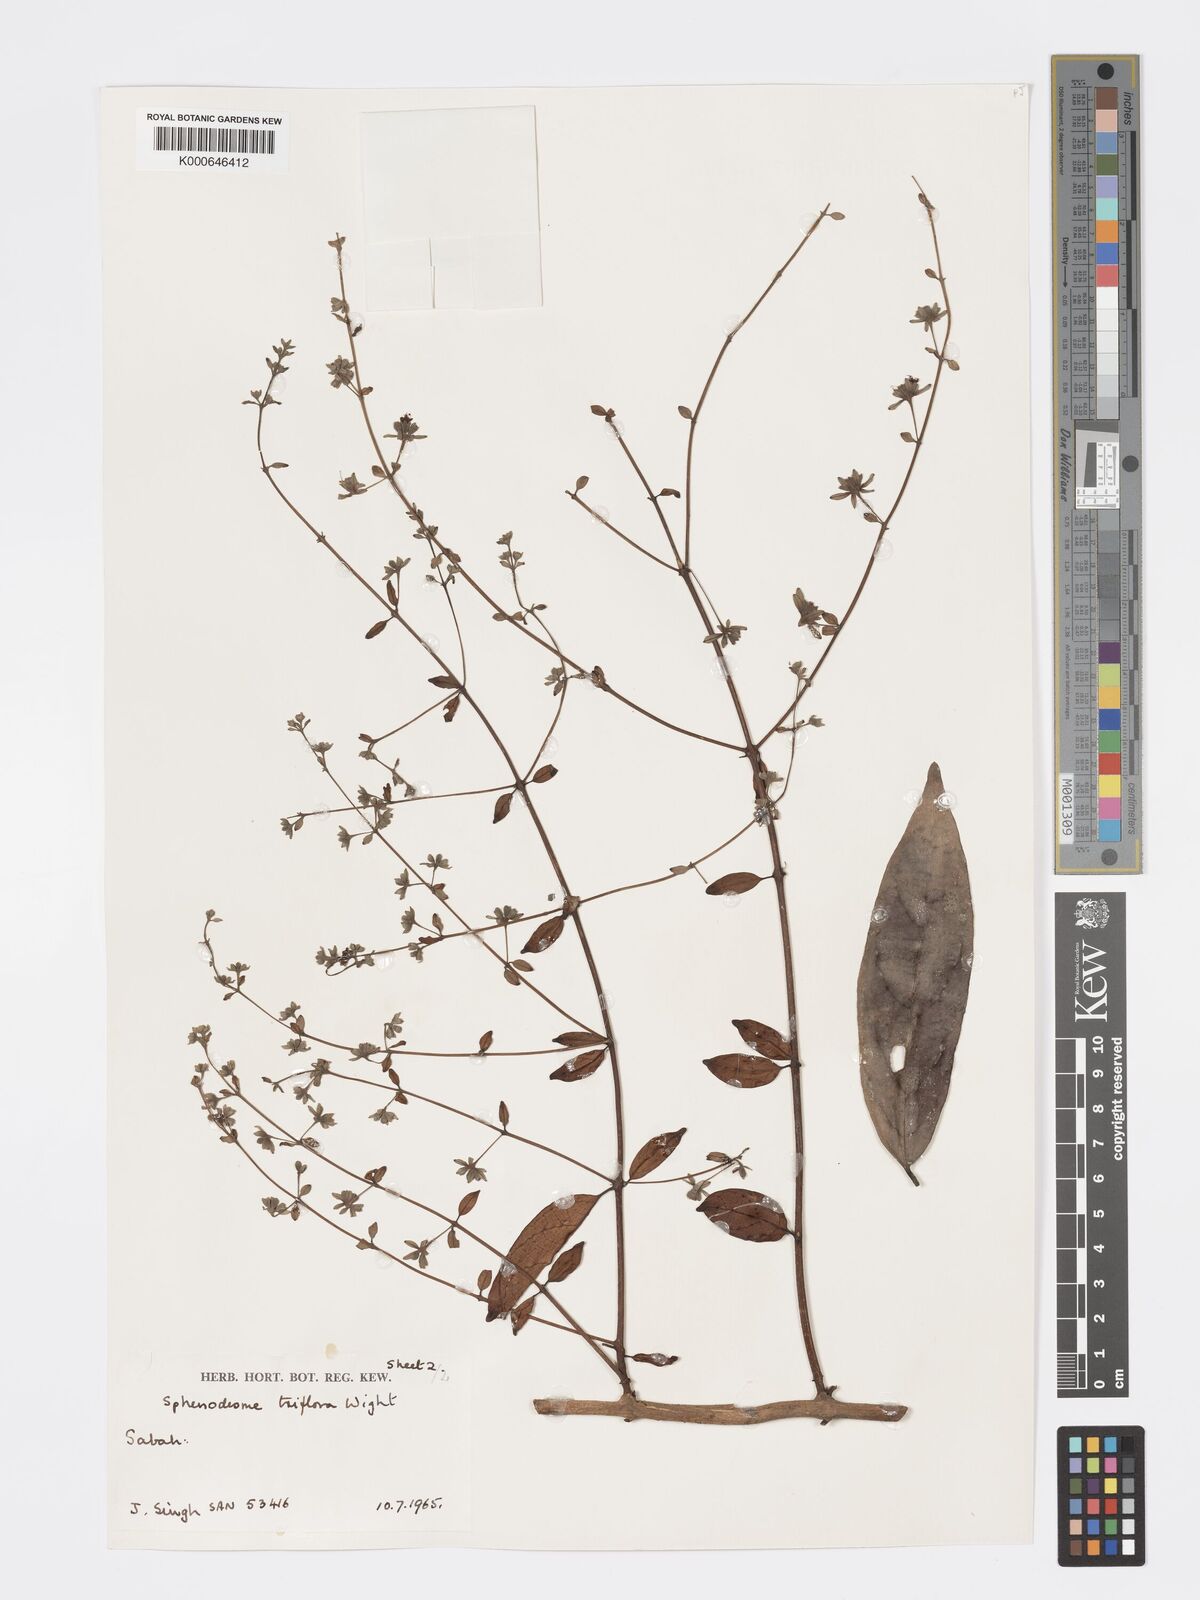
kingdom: Plantae
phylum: Tracheophyta
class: Magnoliopsida
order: Lamiales
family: Lamiaceae
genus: Sphenodesme
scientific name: Sphenodesme triflora
